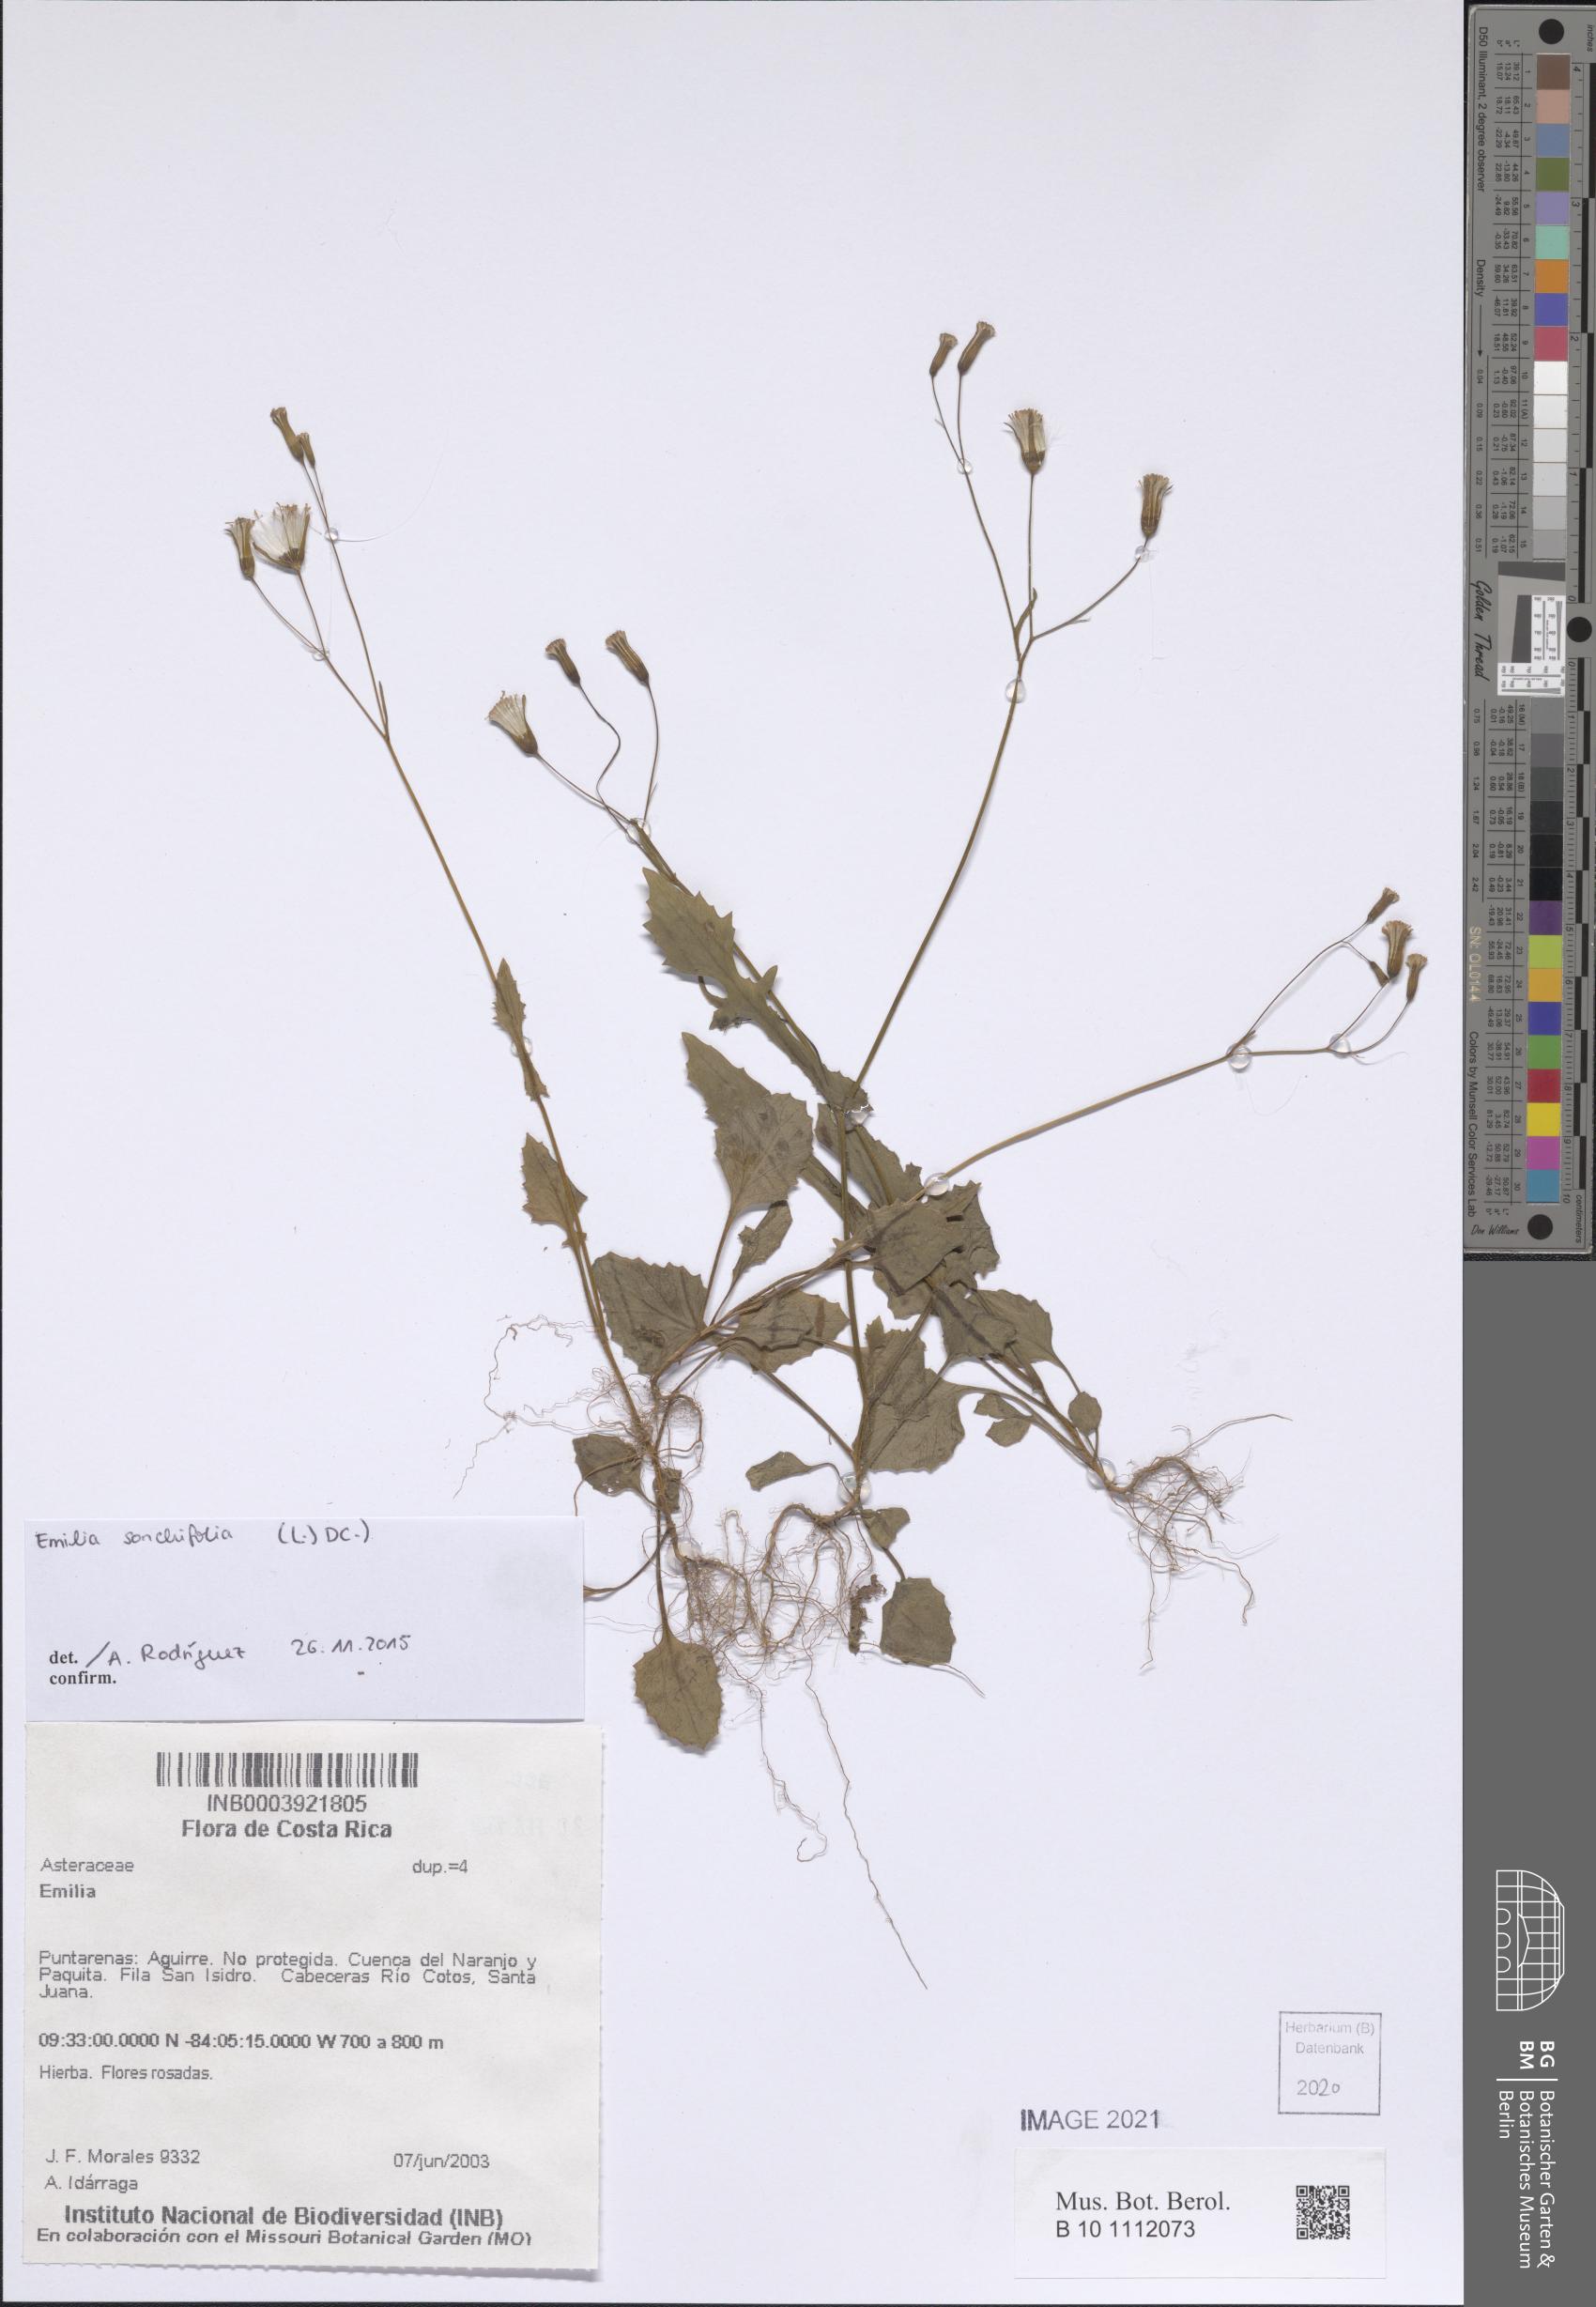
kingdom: Plantae
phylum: Tracheophyta
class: Magnoliopsida
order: Asterales
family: Asteraceae
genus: Emilia
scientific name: Emilia sonchifolia
